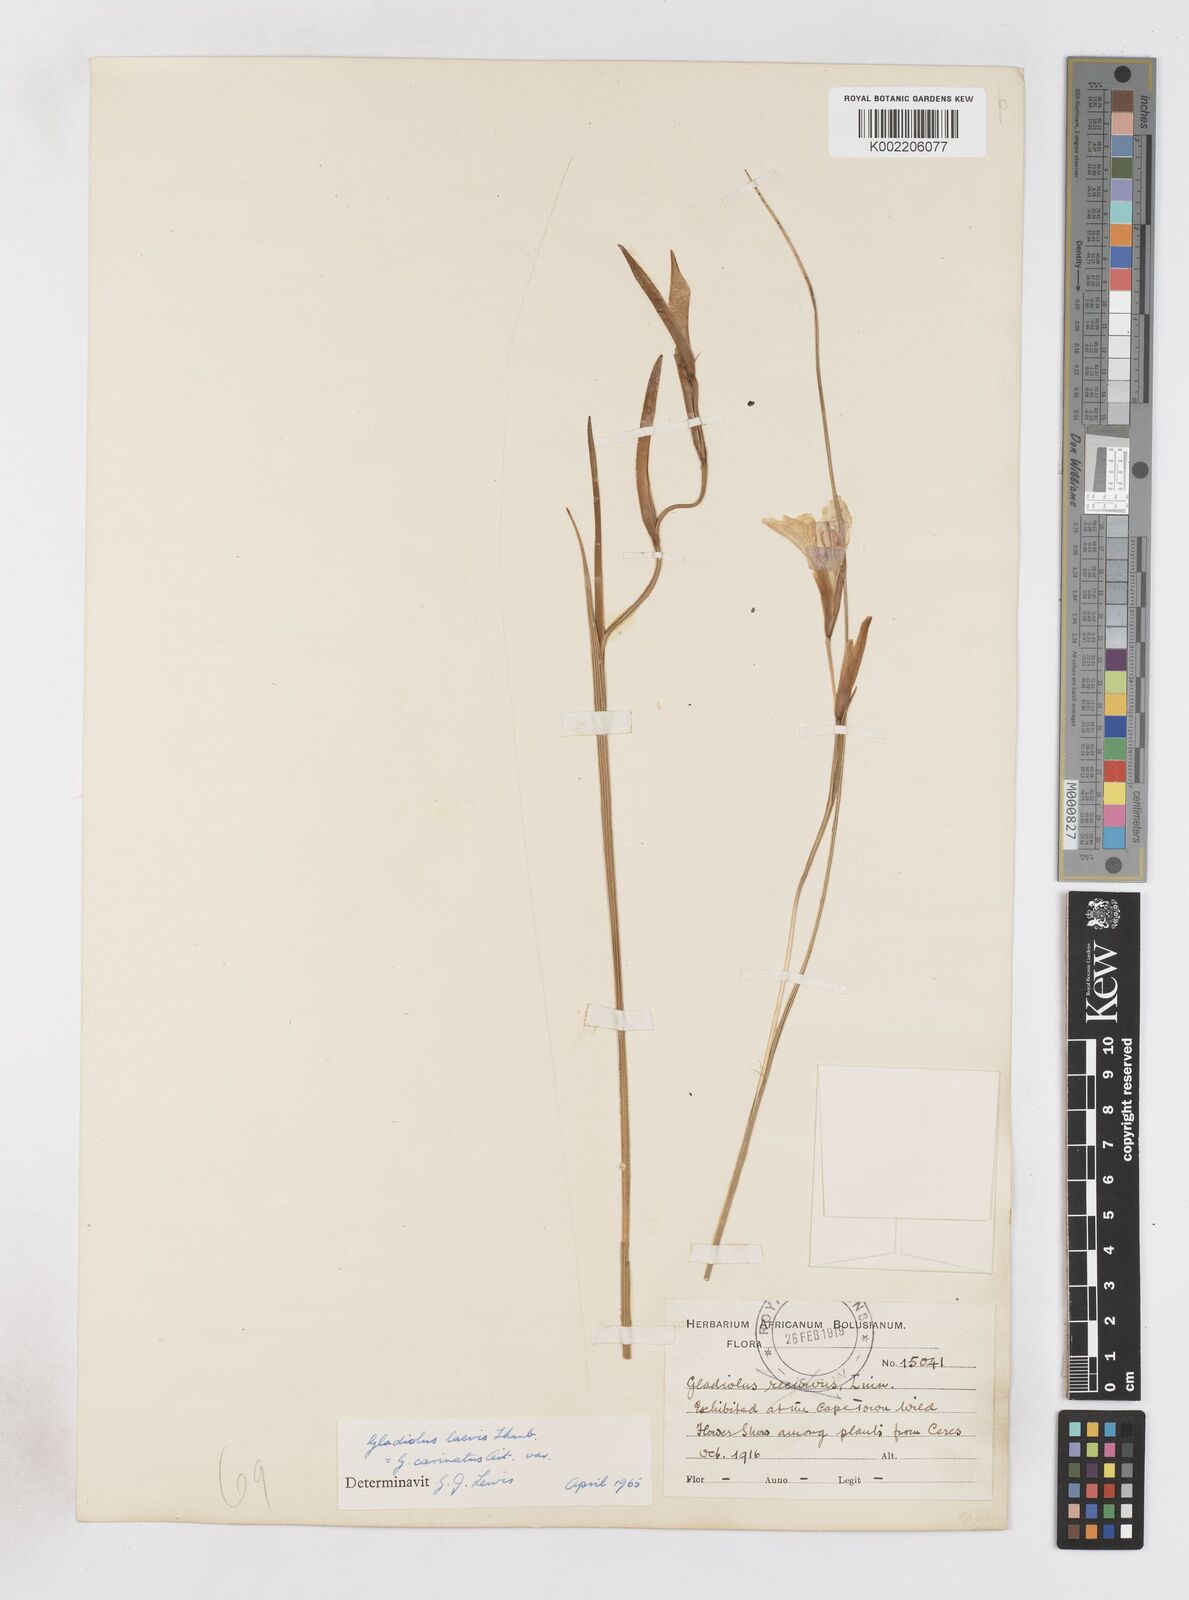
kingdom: Plantae
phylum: Tracheophyta
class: Liliopsida
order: Asparagales
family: Iridaceae
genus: Gladiolus
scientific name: Gladiolus carinatus
